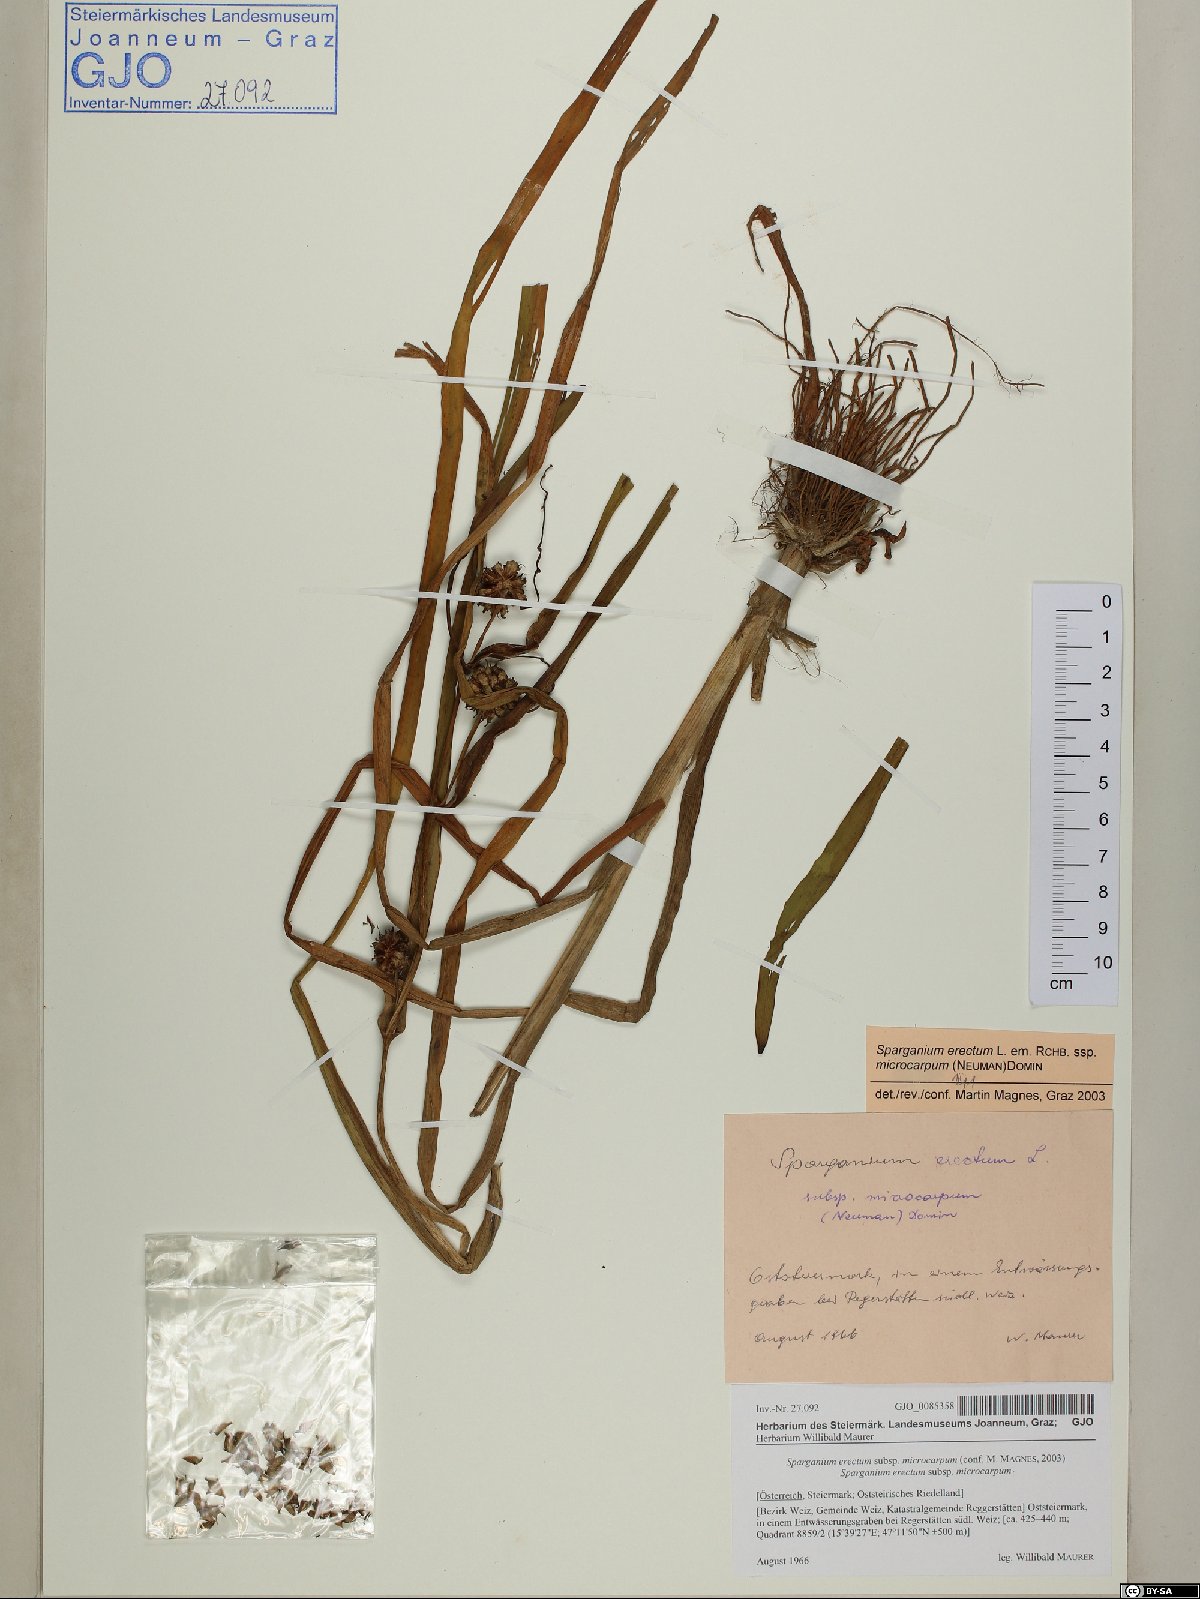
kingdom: Plantae
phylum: Tracheophyta
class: Liliopsida
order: Poales
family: Typhaceae
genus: Sparganium
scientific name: Sparganium erectum
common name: Branched bur-reed
